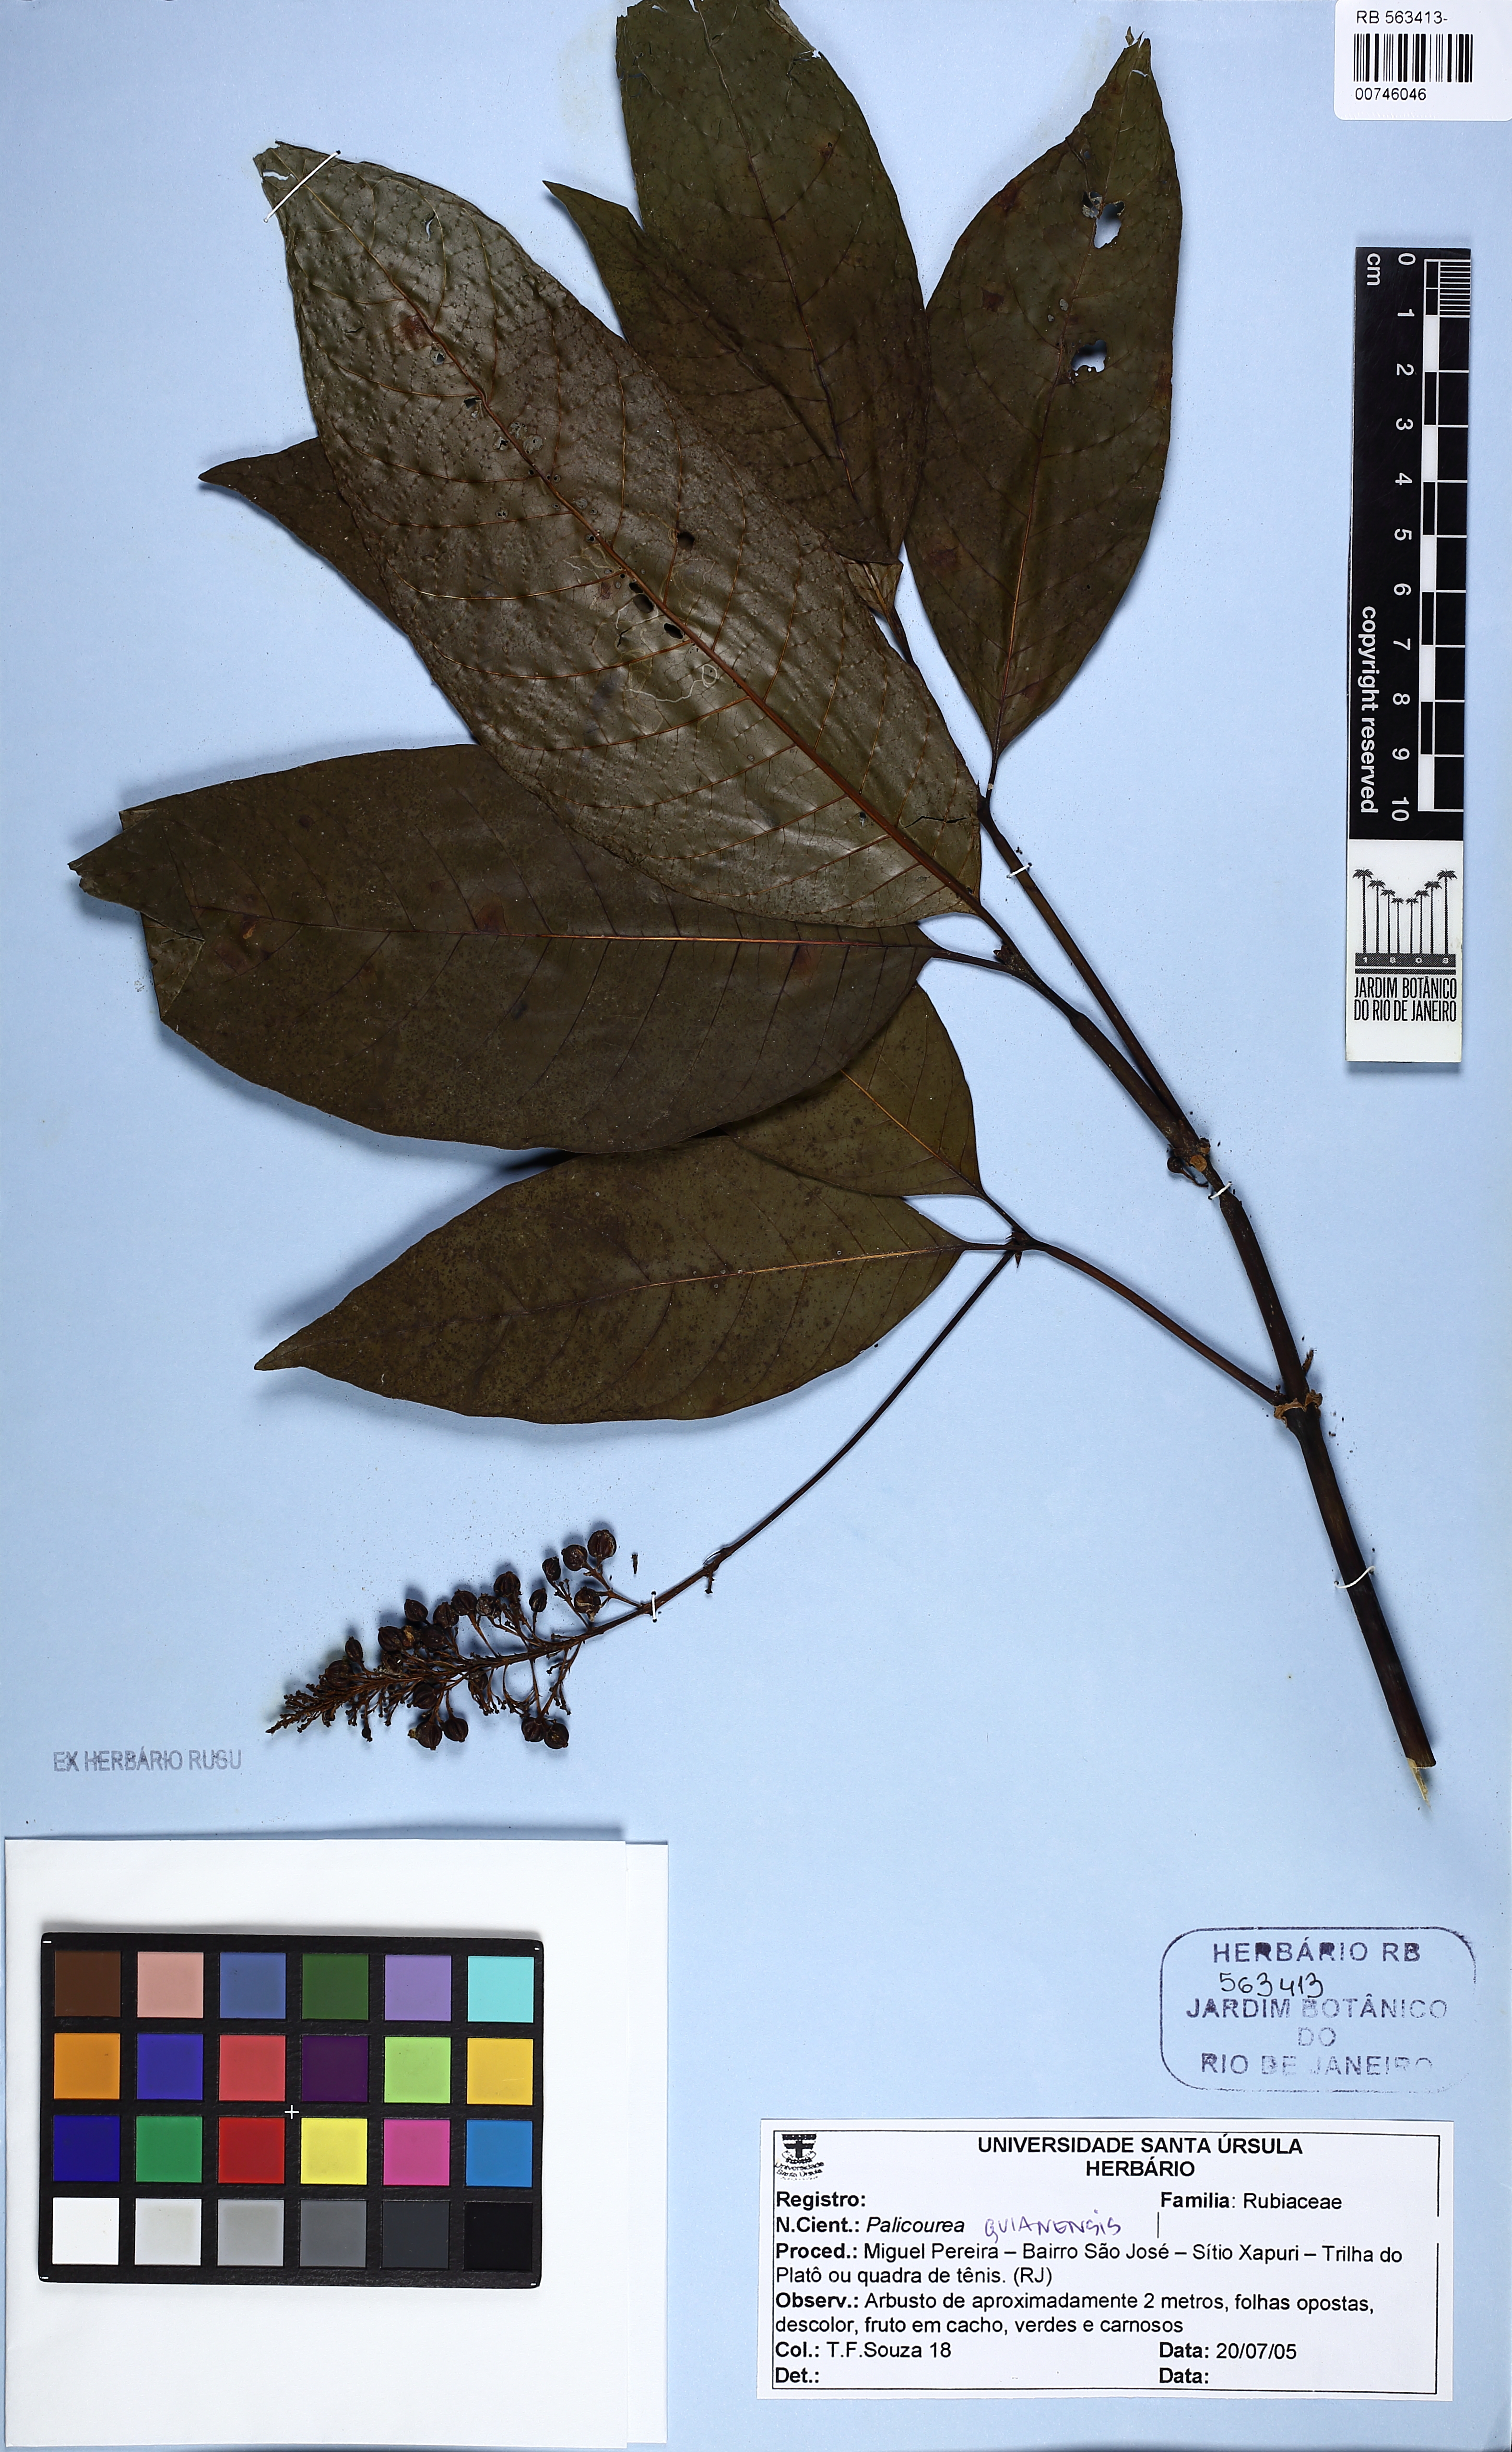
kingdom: Plantae
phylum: Tracheophyta
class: Magnoliopsida
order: Gentianales
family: Rubiaceae
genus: Palicourea
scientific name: Palicourea guianensis
